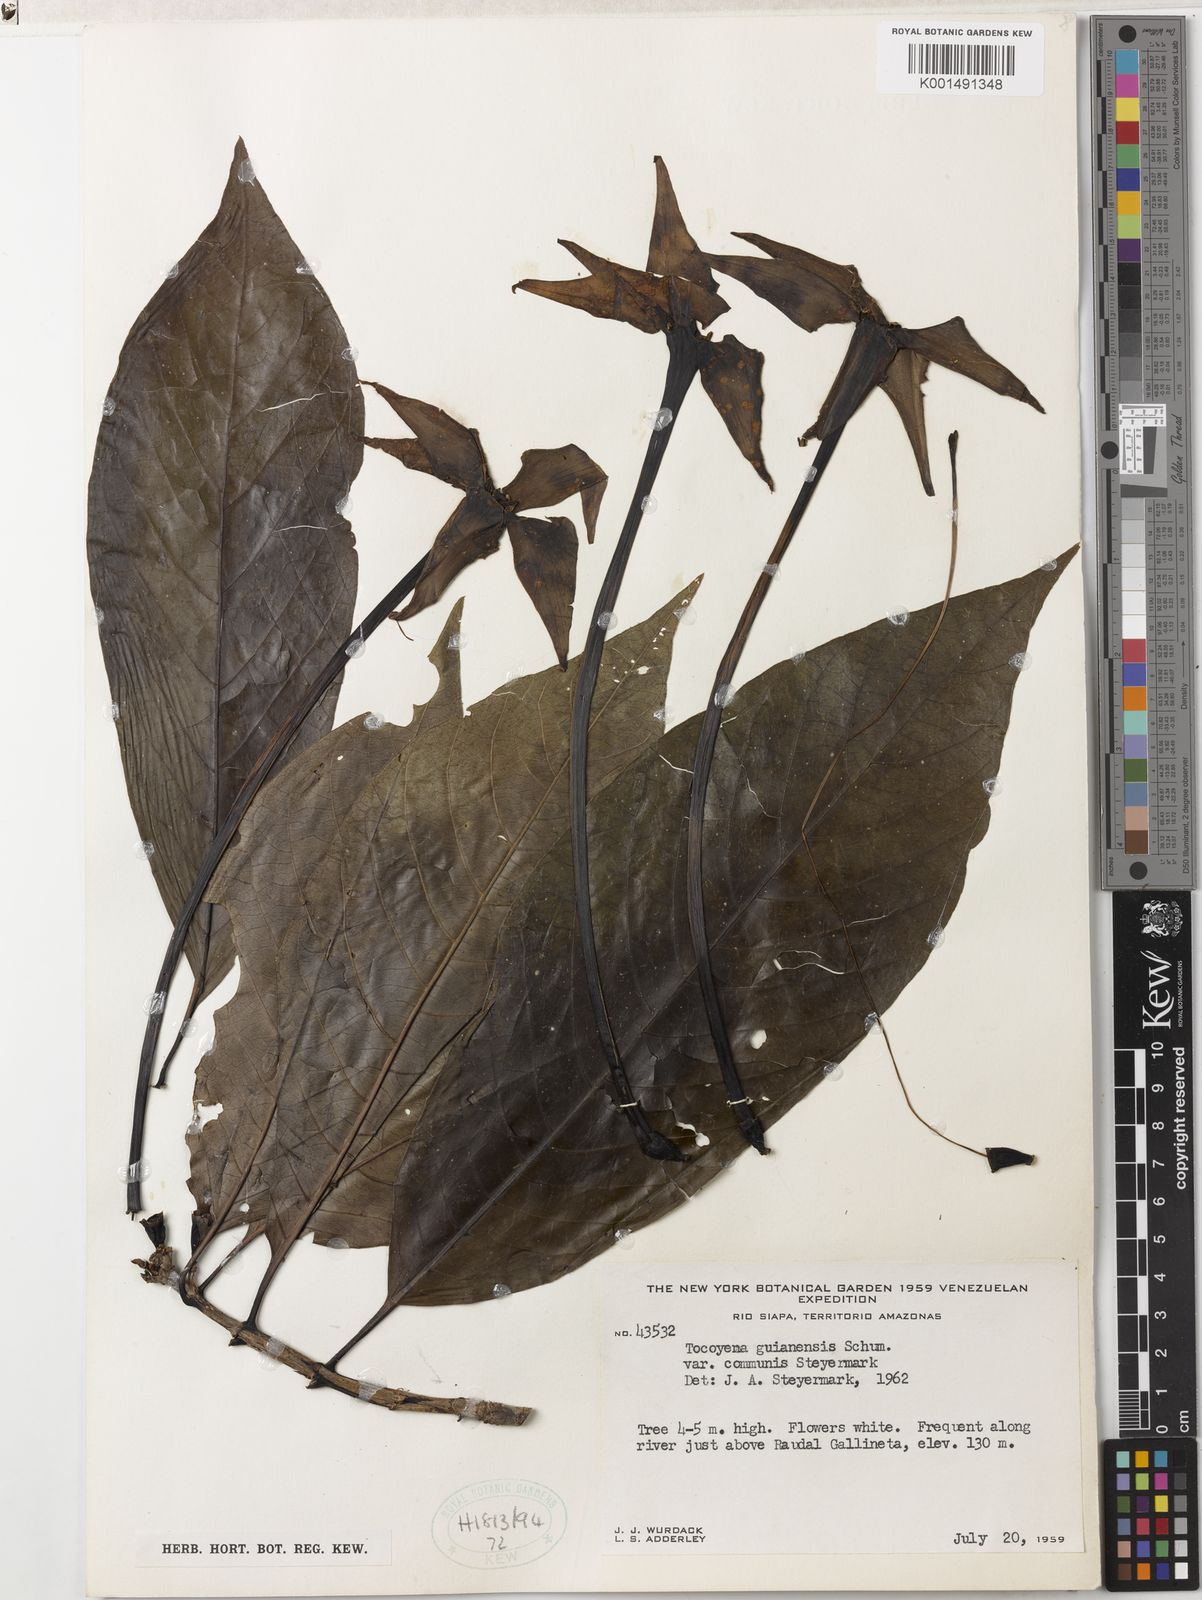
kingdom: Plantae
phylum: Tracheophyta
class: Magnoliopsida
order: Gentianales
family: Rubiaceae
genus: Tocoyena
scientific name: Tocoyena guianensis
